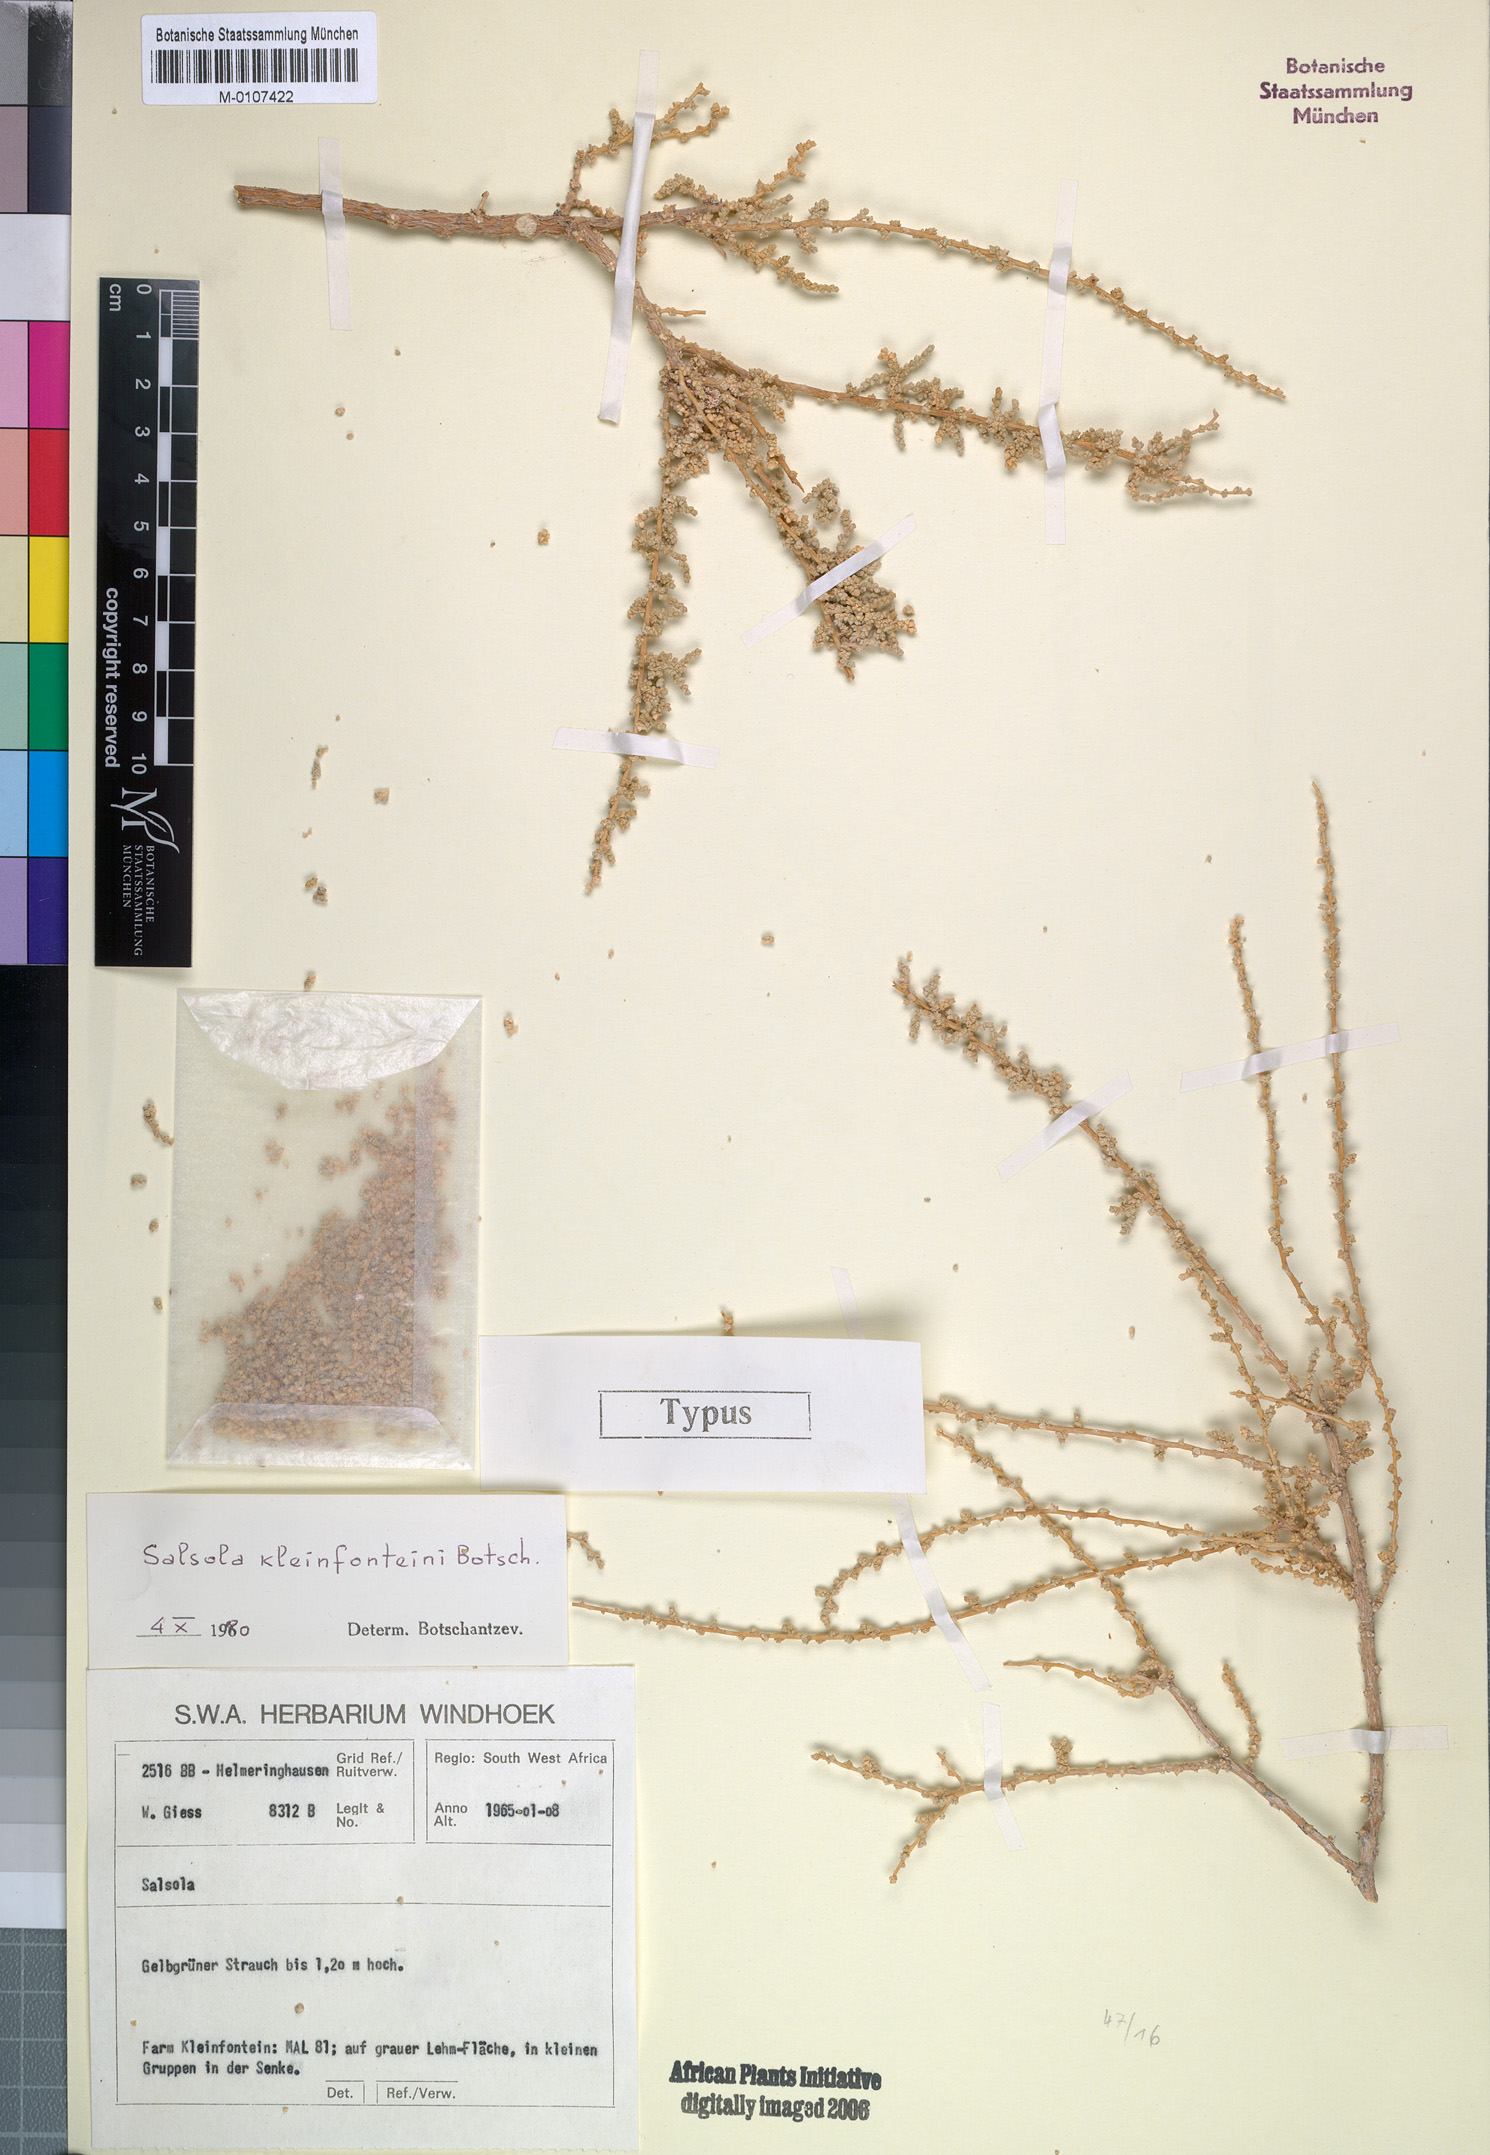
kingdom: Plantae
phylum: Tracheophyta
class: Magnoliopsida
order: Caryophyllales
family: Amaranthaceae
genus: Caroxylon
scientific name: Caroxylon kleinfonteini
